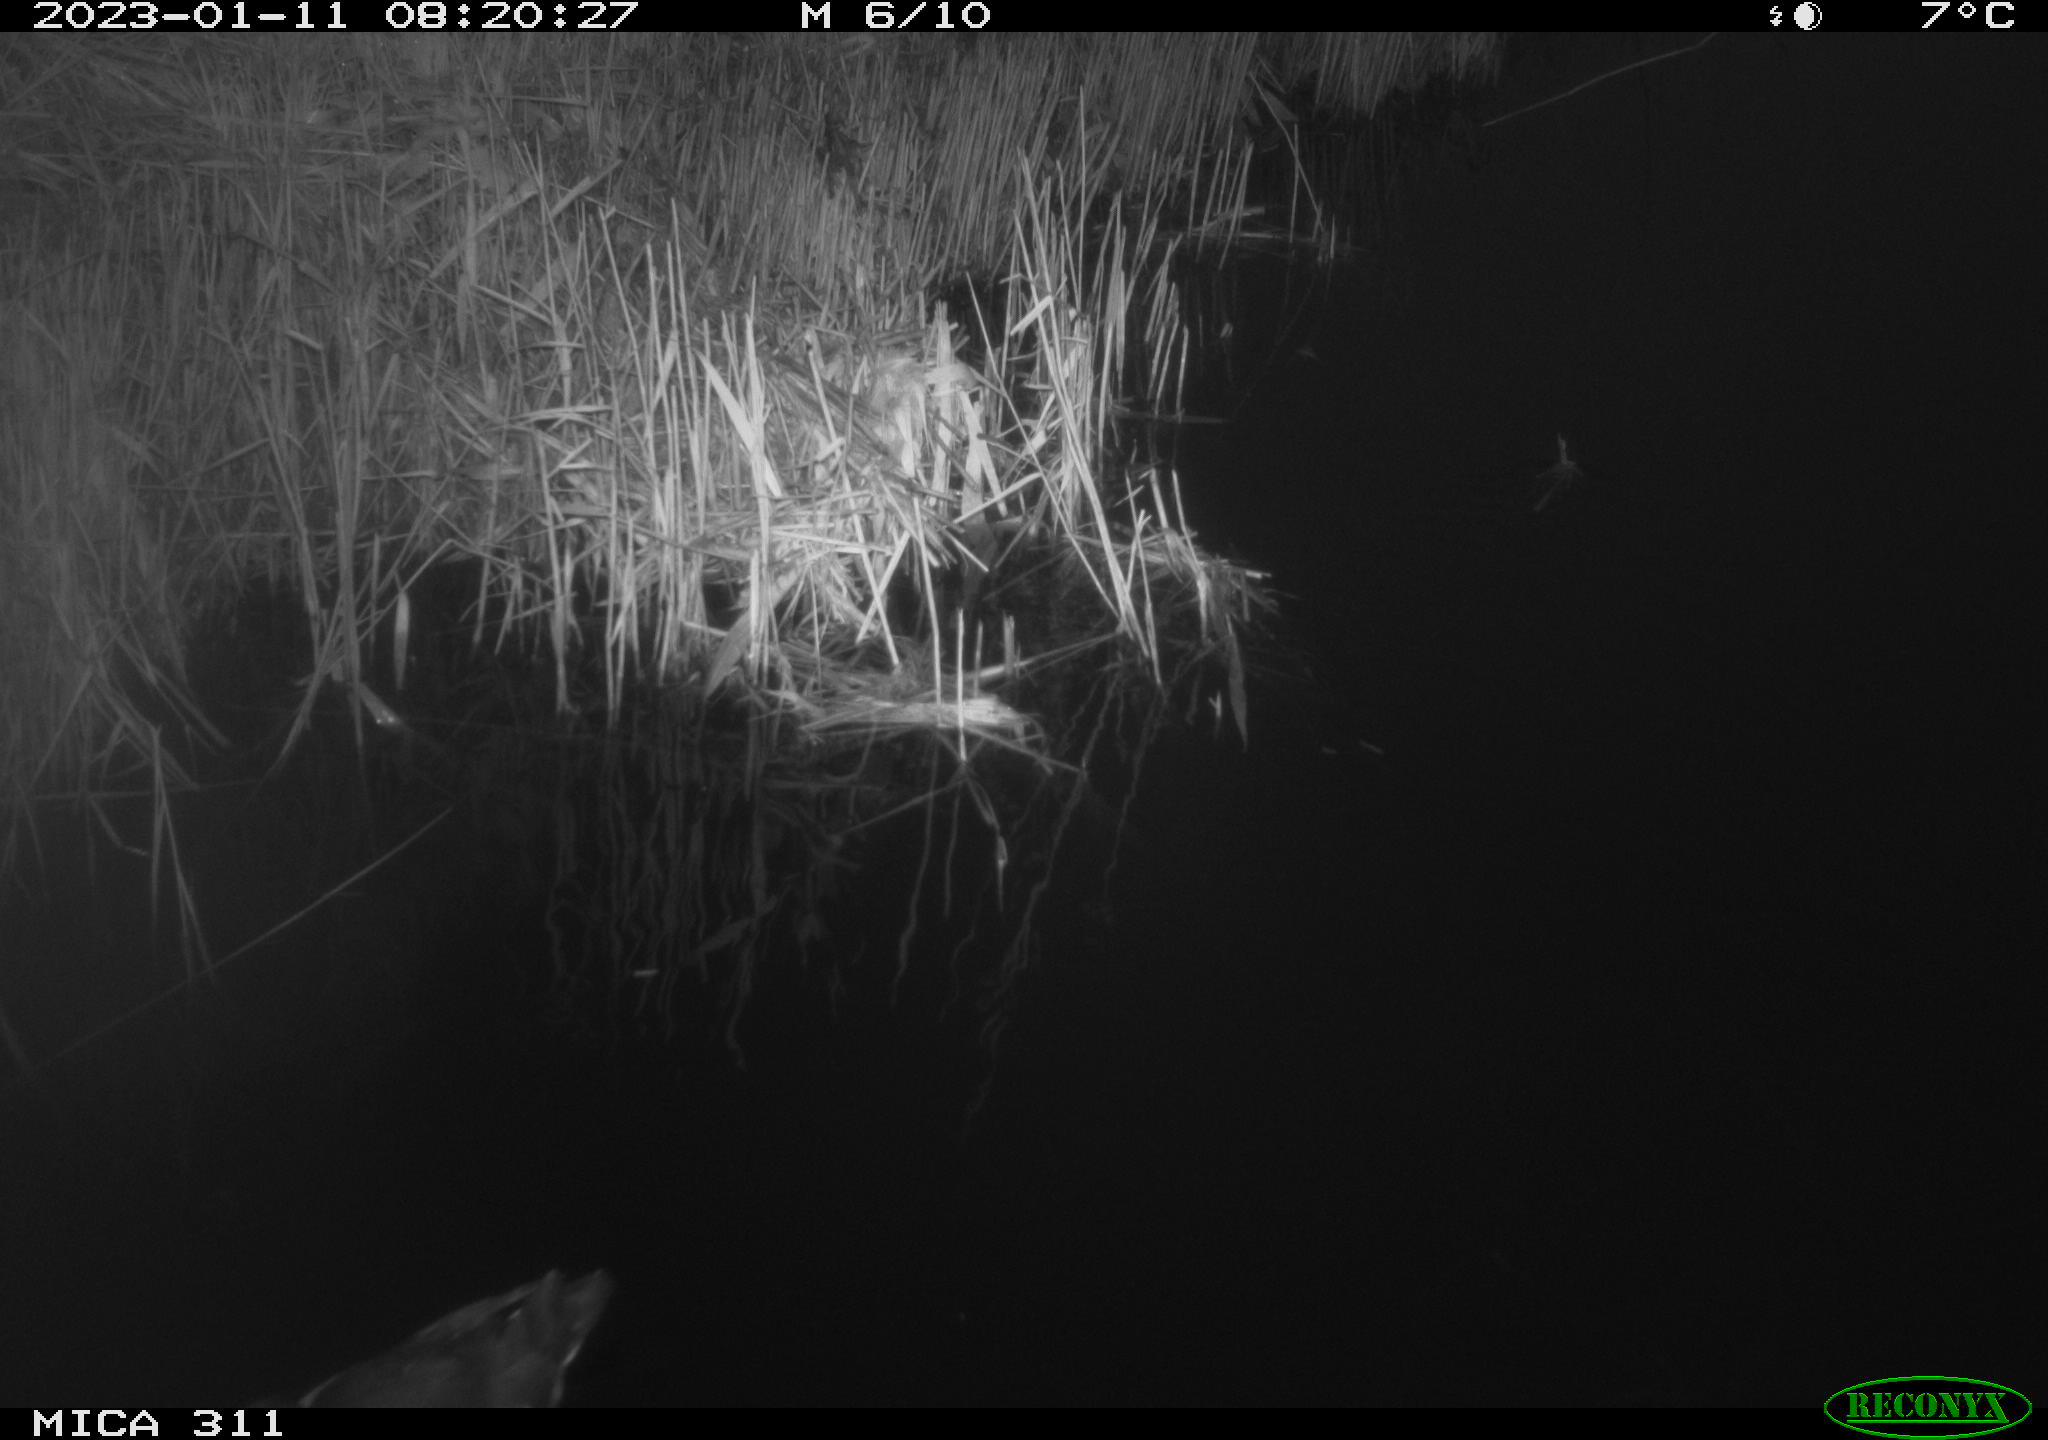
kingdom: Animalia
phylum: Chordata
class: Aves
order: Gruiformes
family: Rallidae
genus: Gallinula
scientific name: Gallinula chloropus
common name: Common moorhen
